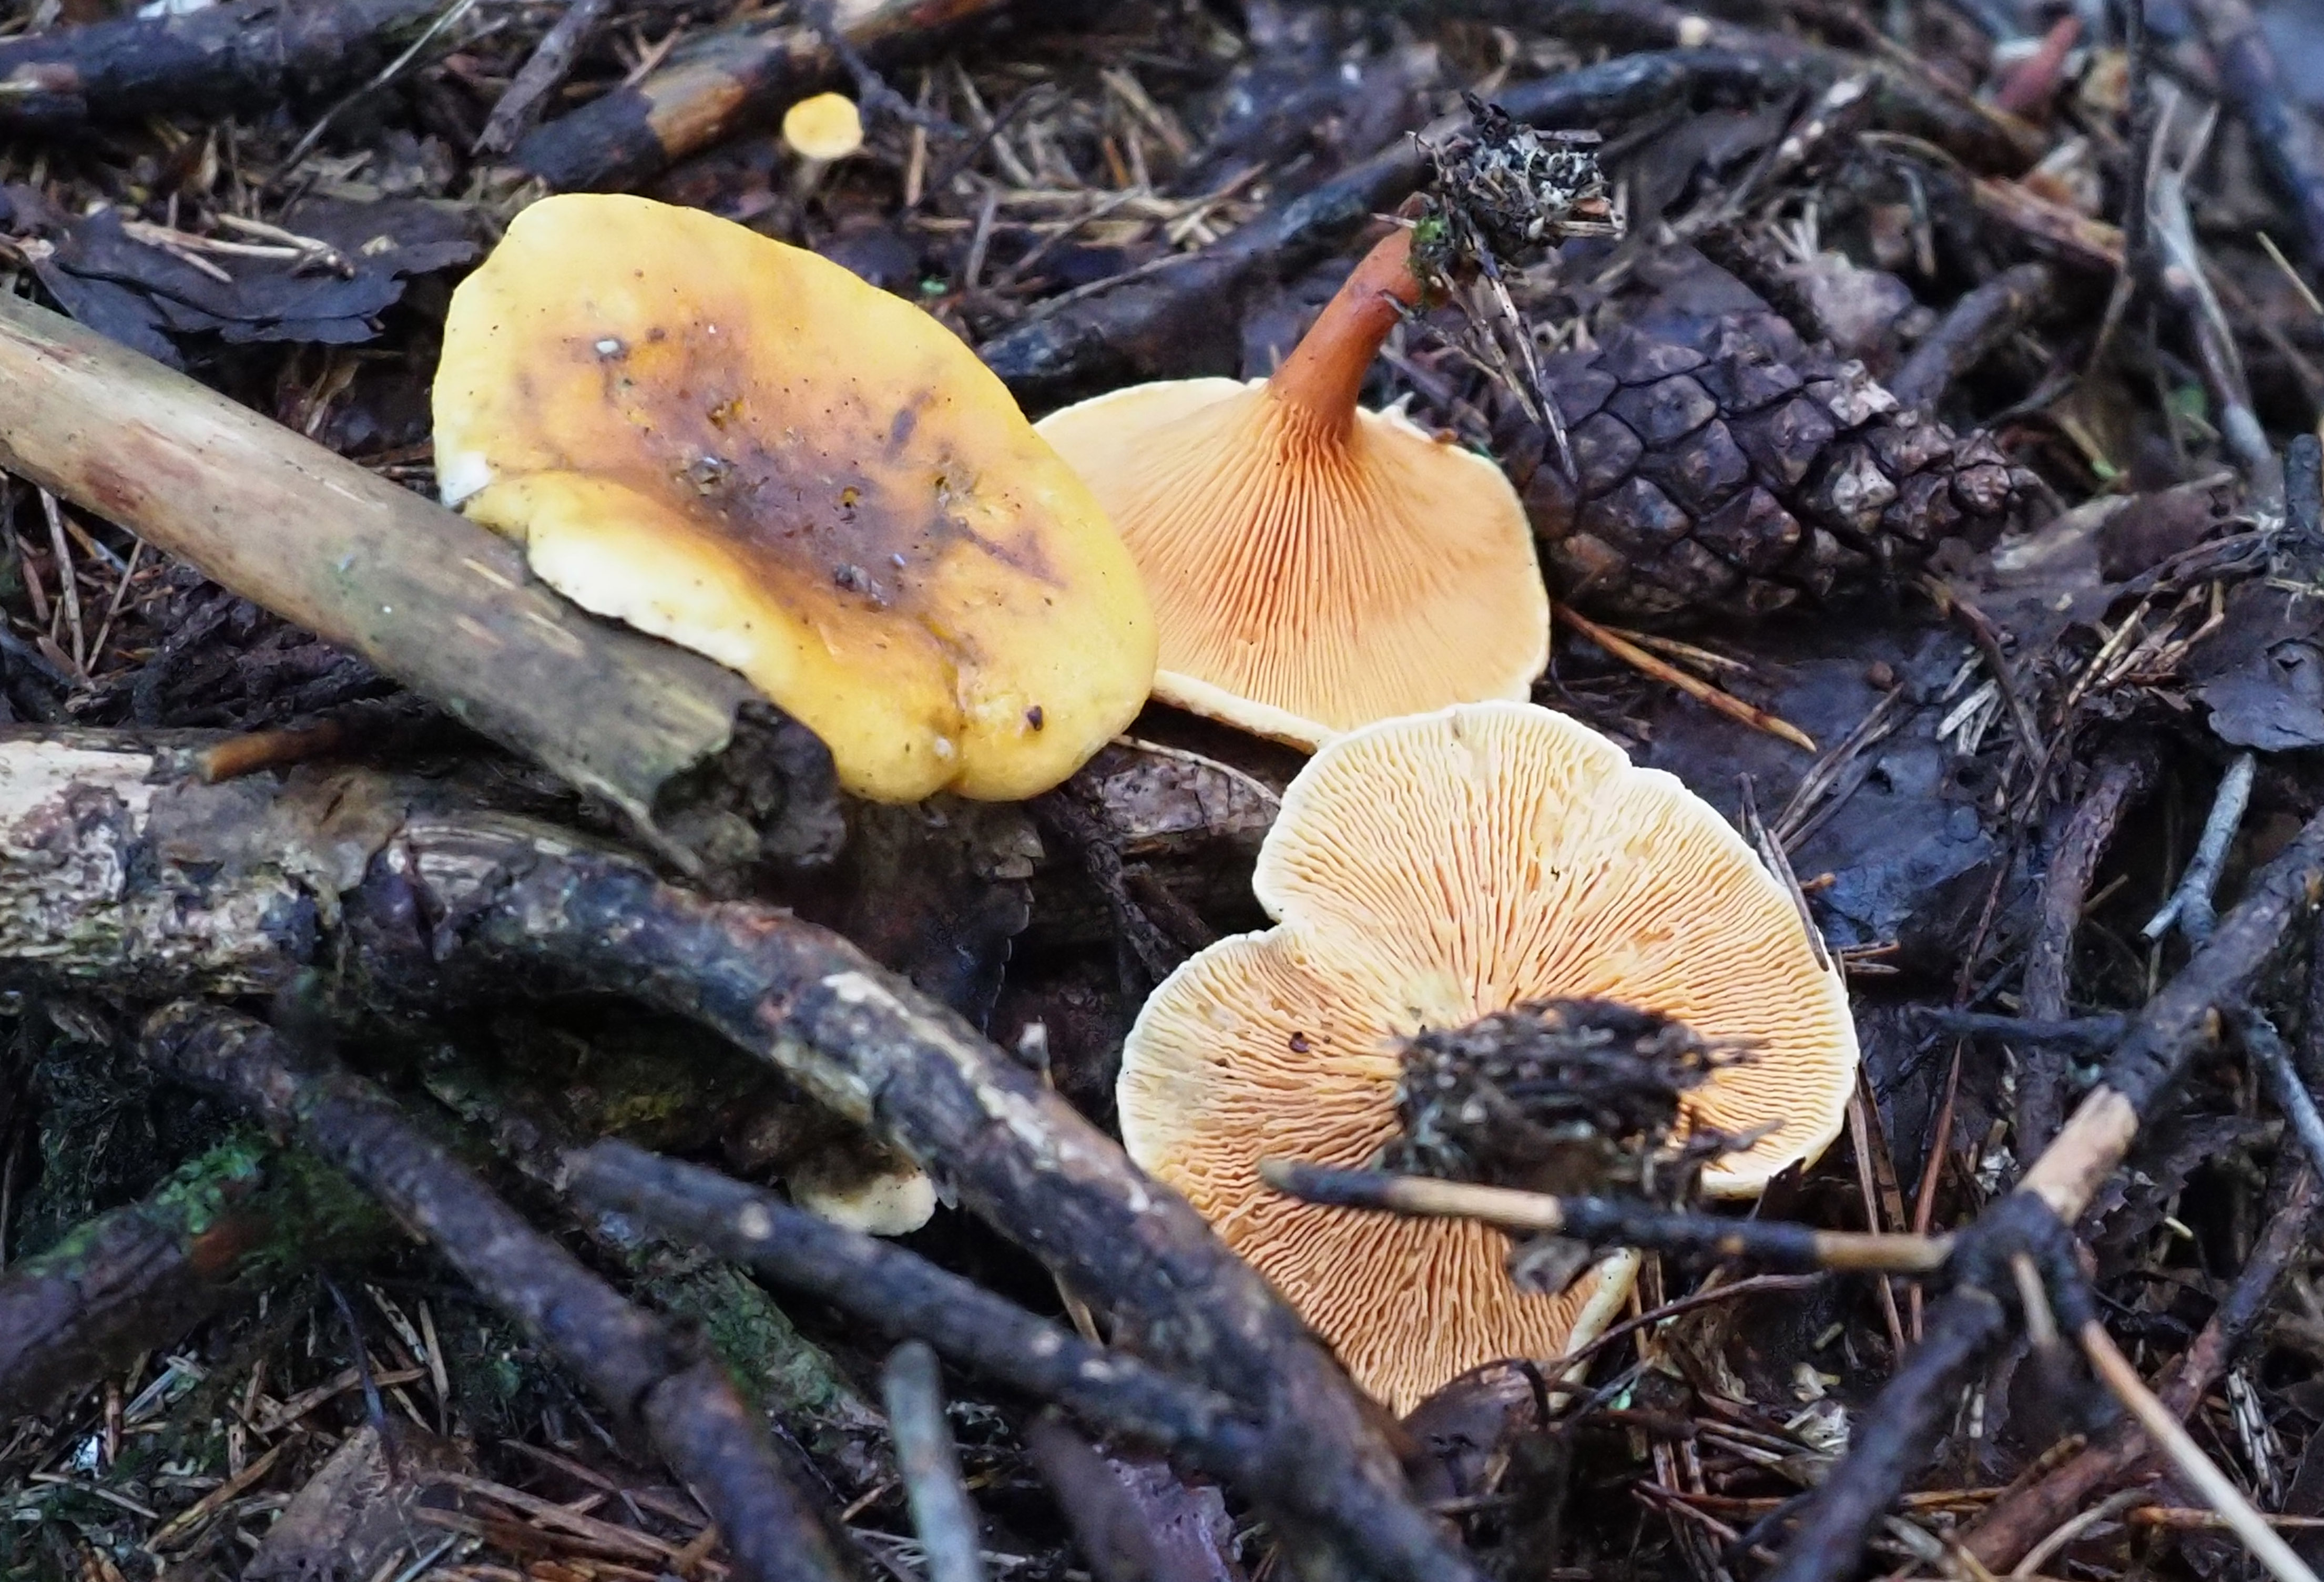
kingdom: Fungi
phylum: Basidiomycota
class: Agaricomycetes
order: Boletales
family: Hygrophoropsidaceae
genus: Hygrophoropsis
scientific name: Hygrophoropsis aurantiaca
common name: False chanterelle
